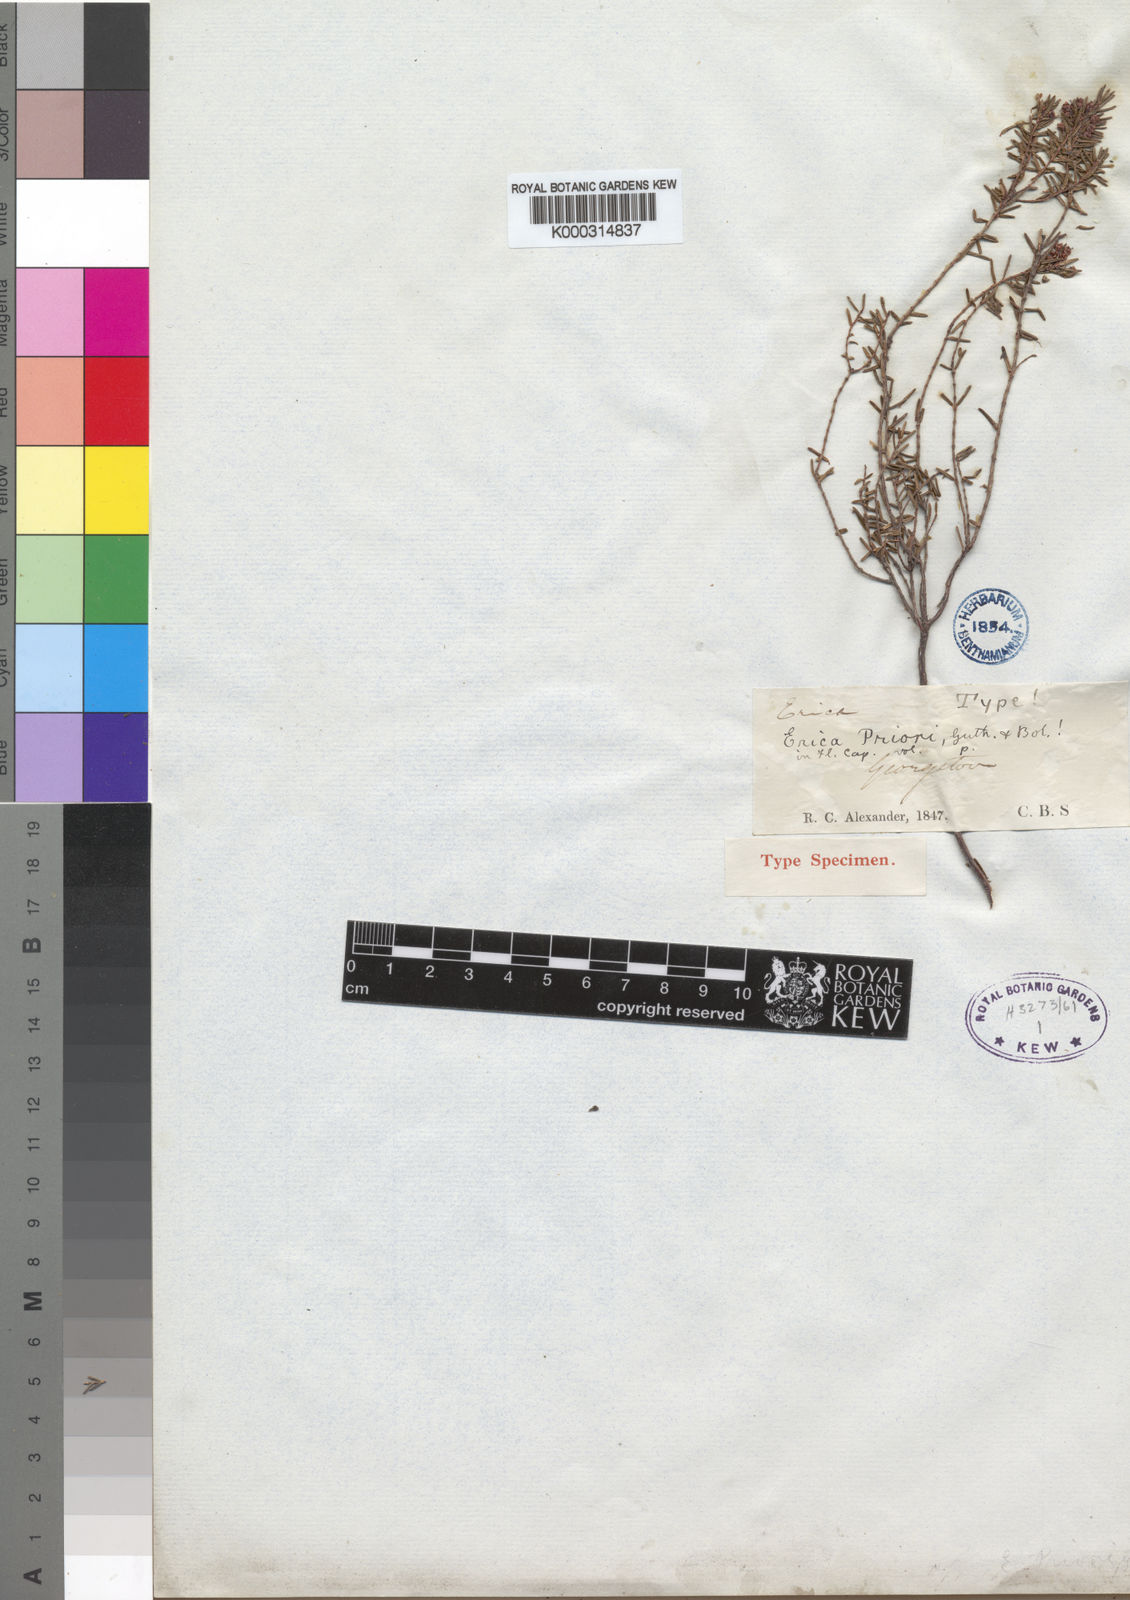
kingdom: Plantae
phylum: Tracheophyta
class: Magnoliopsida
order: Ericales
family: Ericaceae
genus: Erica
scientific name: Erica priori
